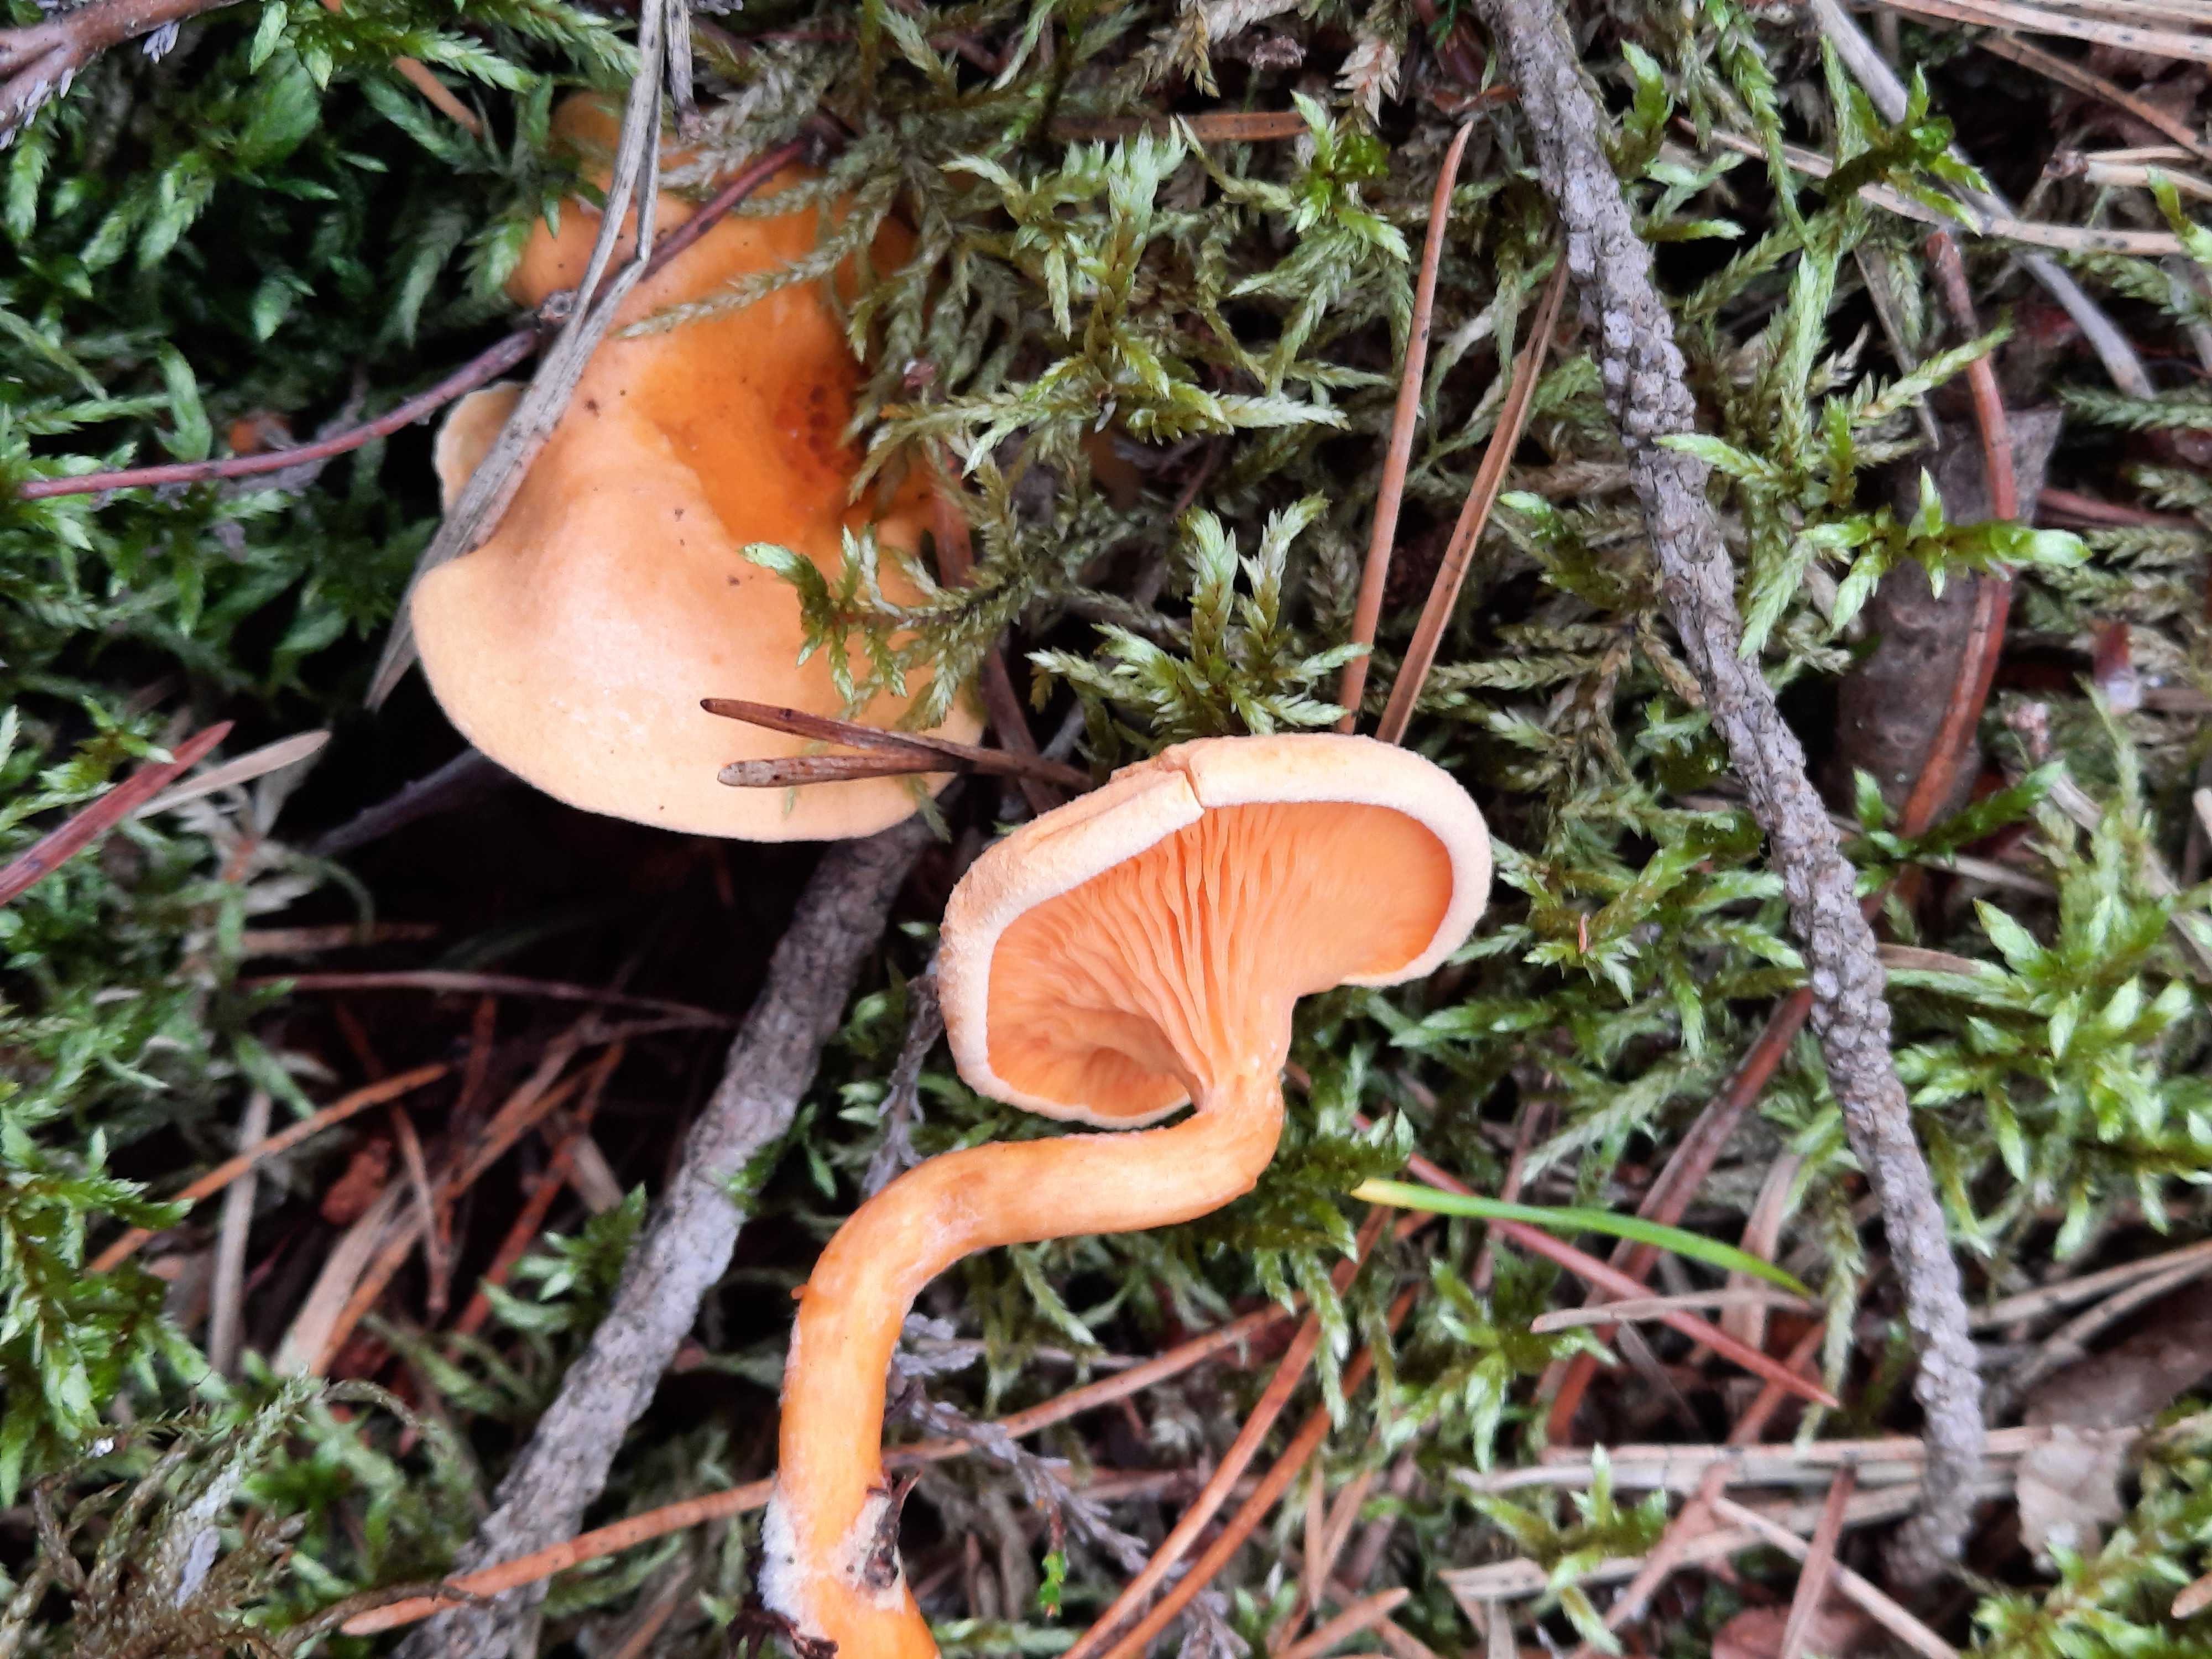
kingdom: Fungi
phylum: Basidiomycota
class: Agaricomycetes
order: Boletales
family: Hygrophoropsidaceae
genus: Hygrophoropsis
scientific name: Hygrophoropsis aurantiaca
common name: almindelig orangekantarel
